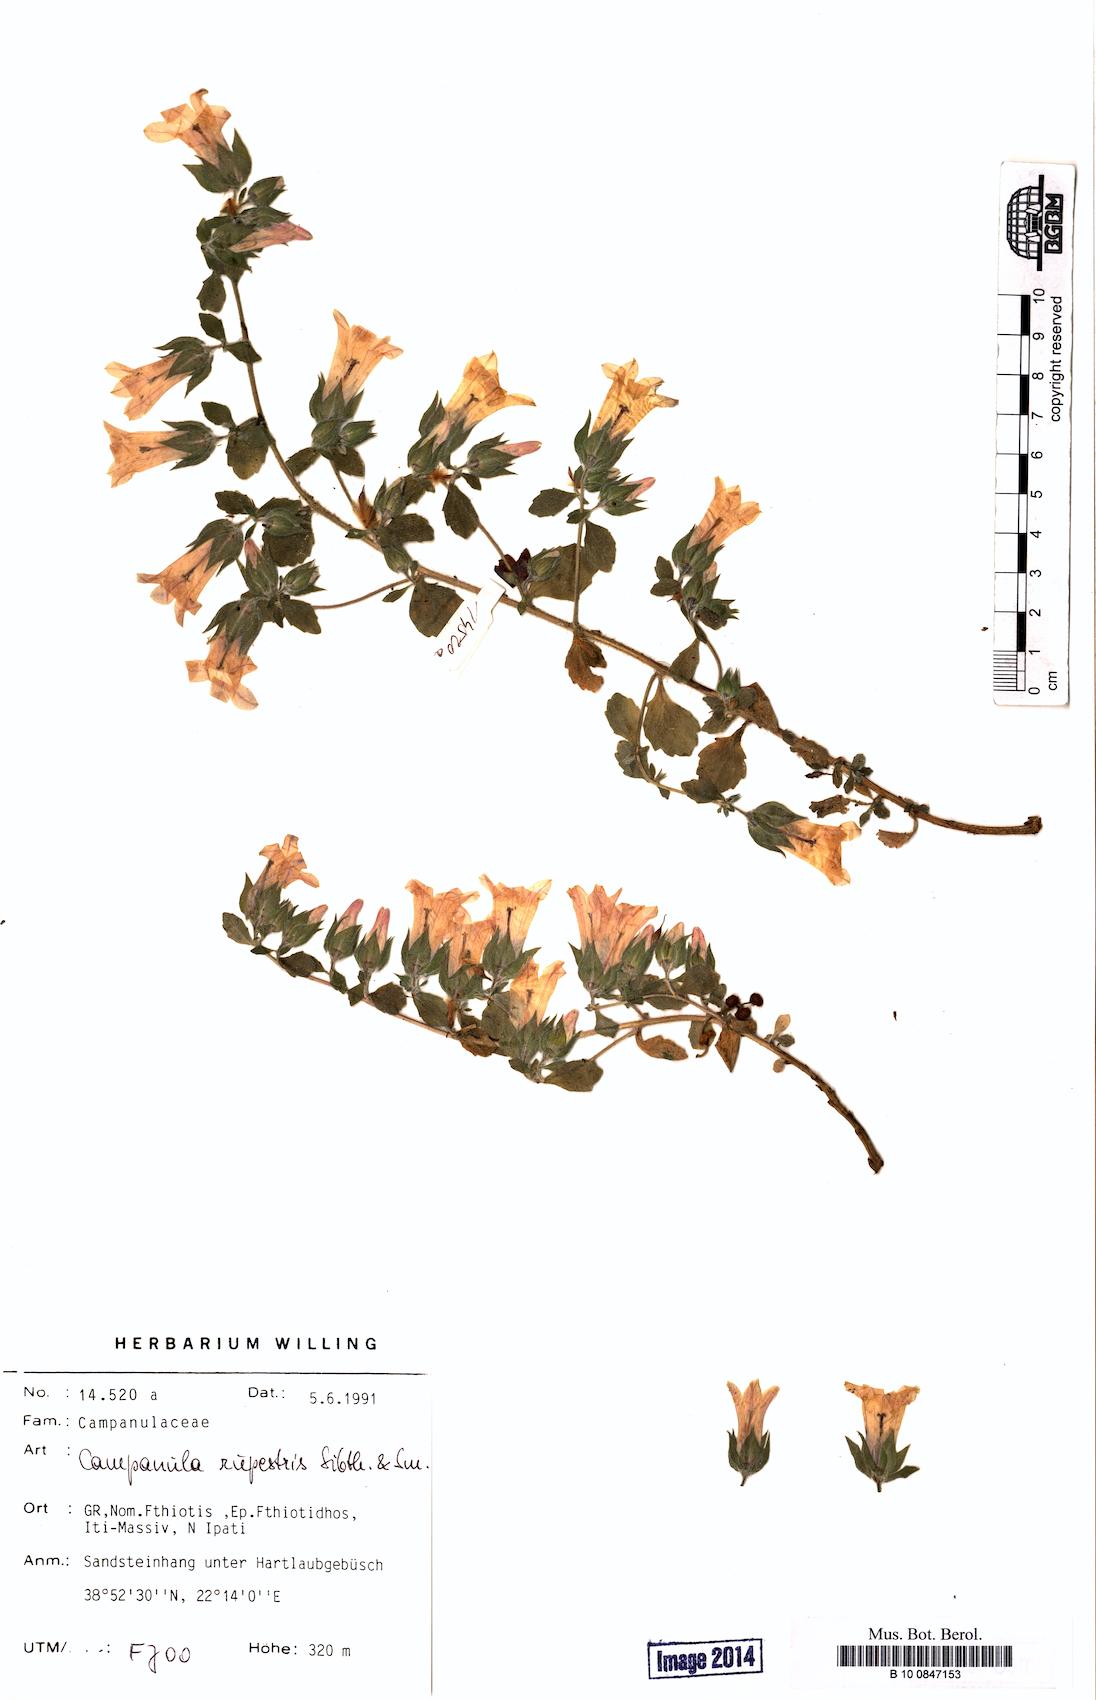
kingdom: Plantae
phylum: Tracheophyta
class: Magnoliopsida
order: Asterales
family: Campanulaceae
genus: Campanula
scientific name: Campanula rupestris
